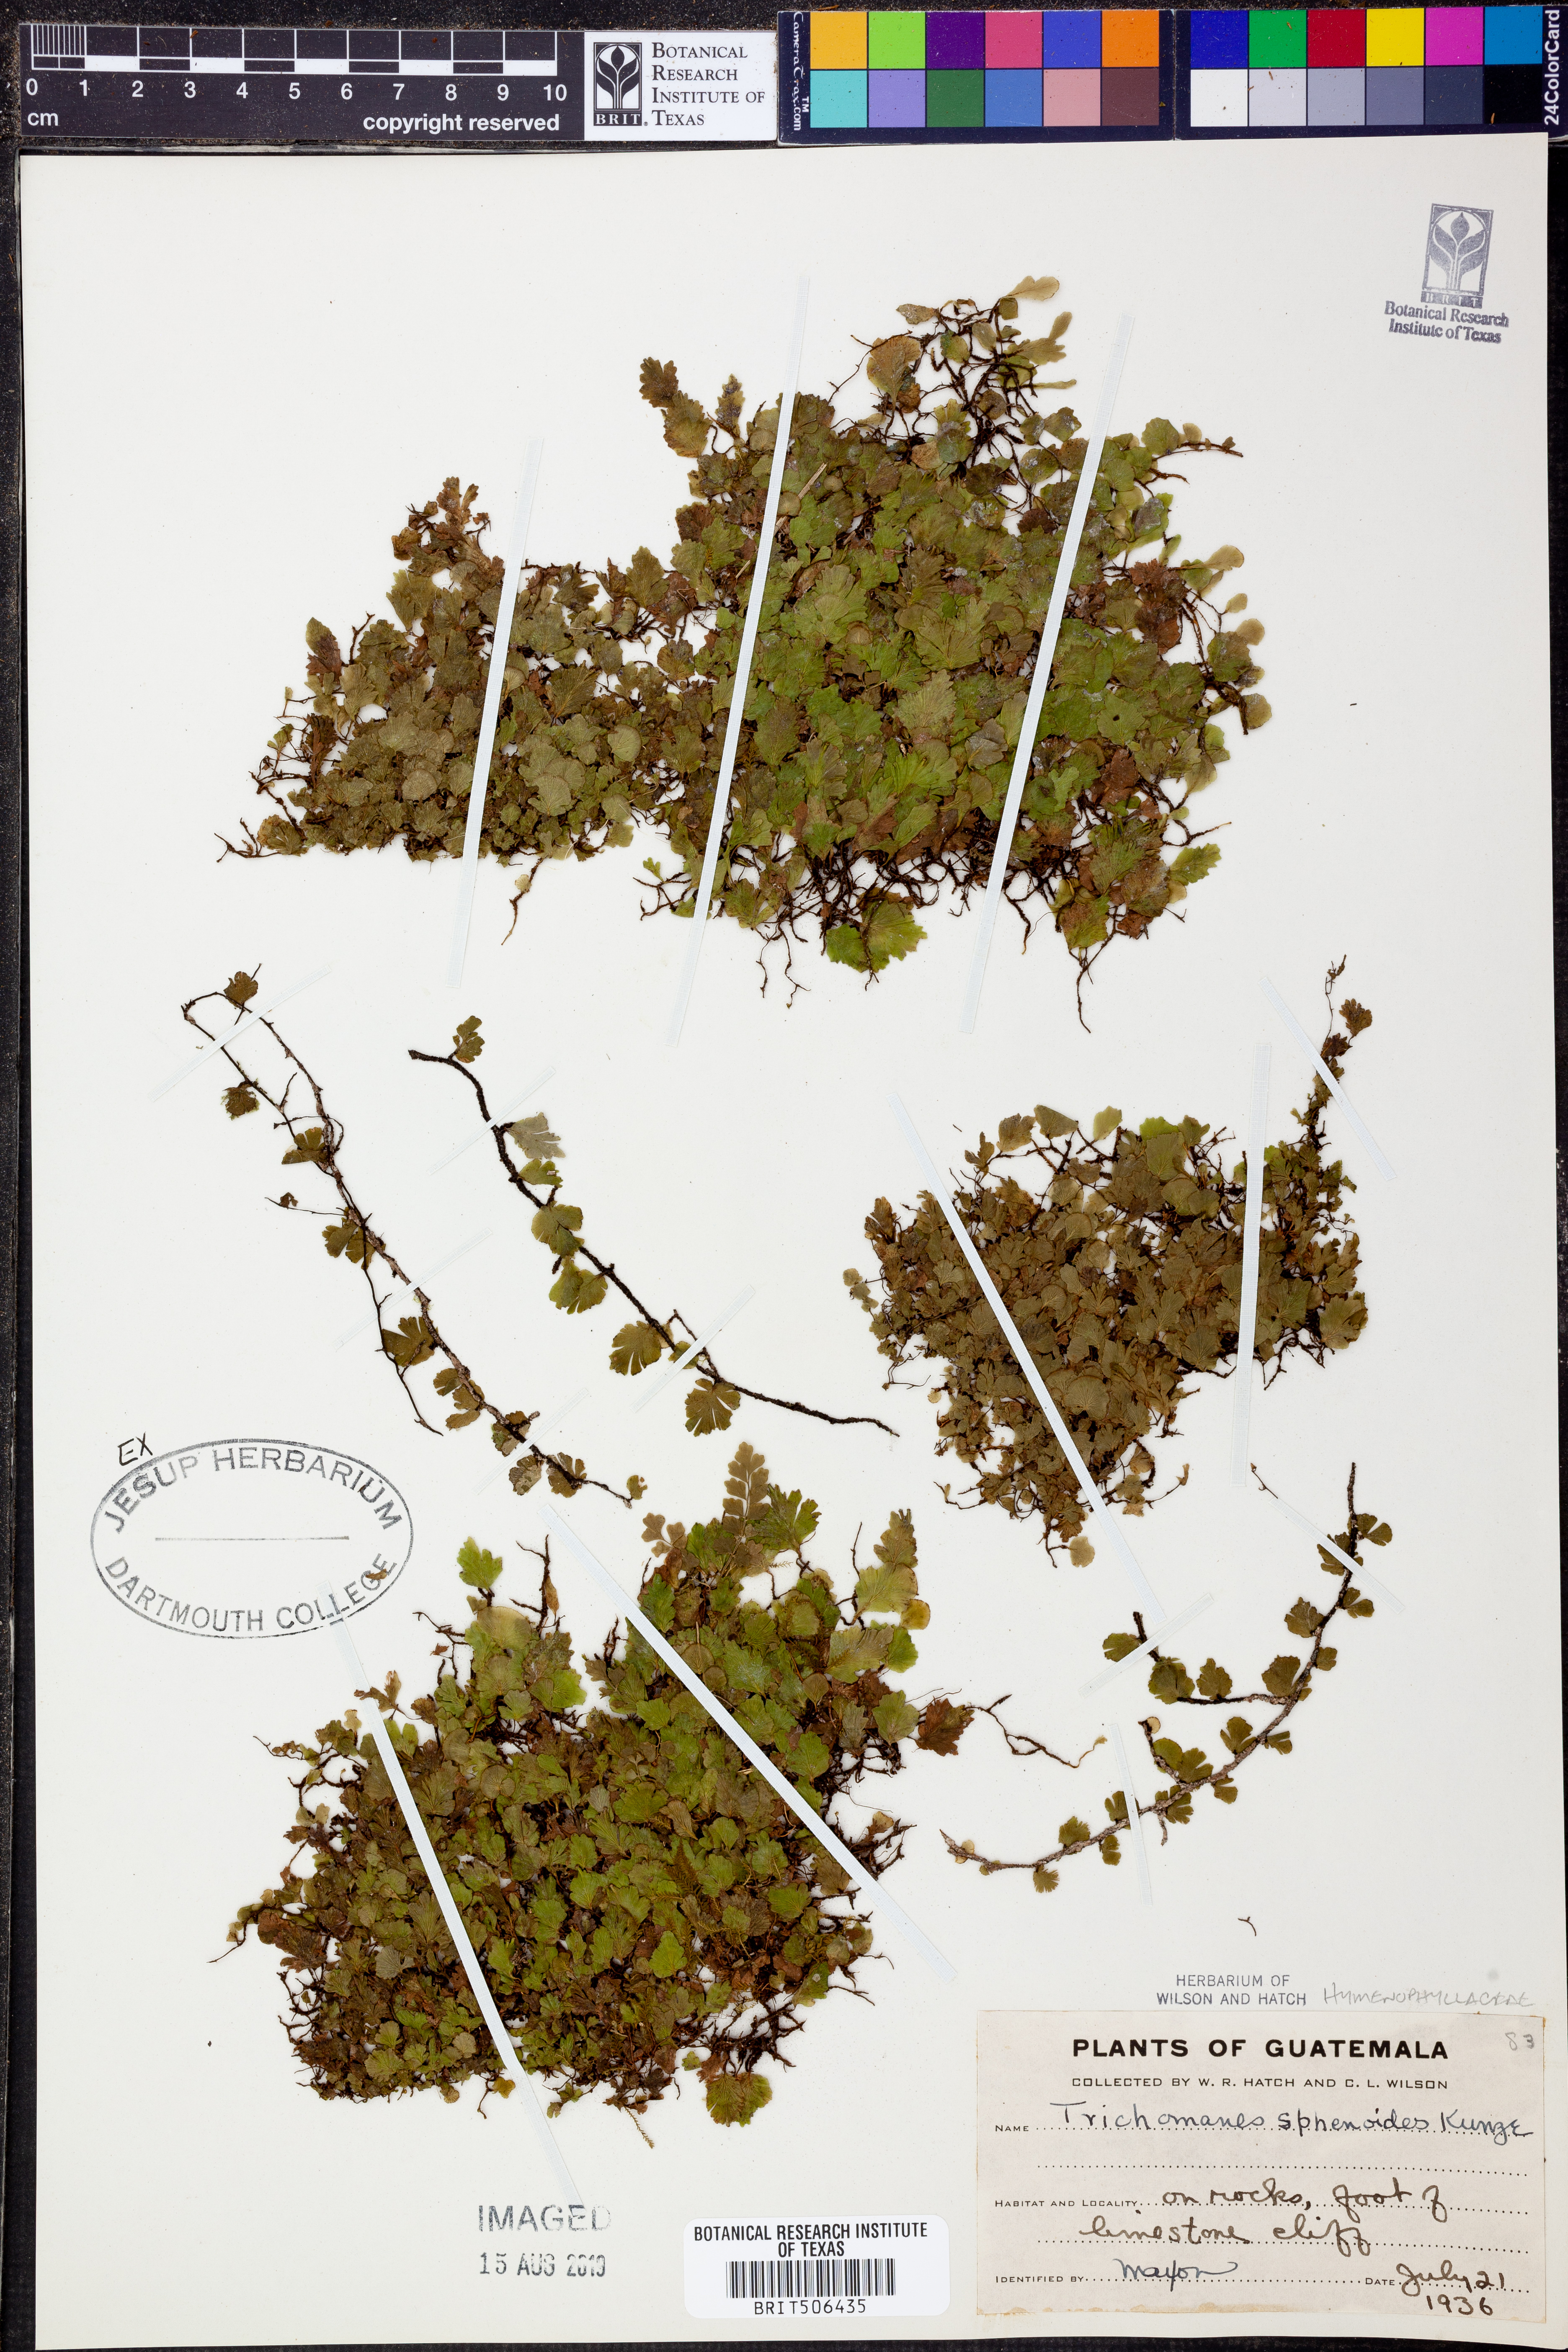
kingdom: Plantae
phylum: Tracheophyta
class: Polypodiopsida
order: Hymenophyllales
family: Hymenophyllaceae
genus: Didymoglossum
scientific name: Didymoglossum punctatum
